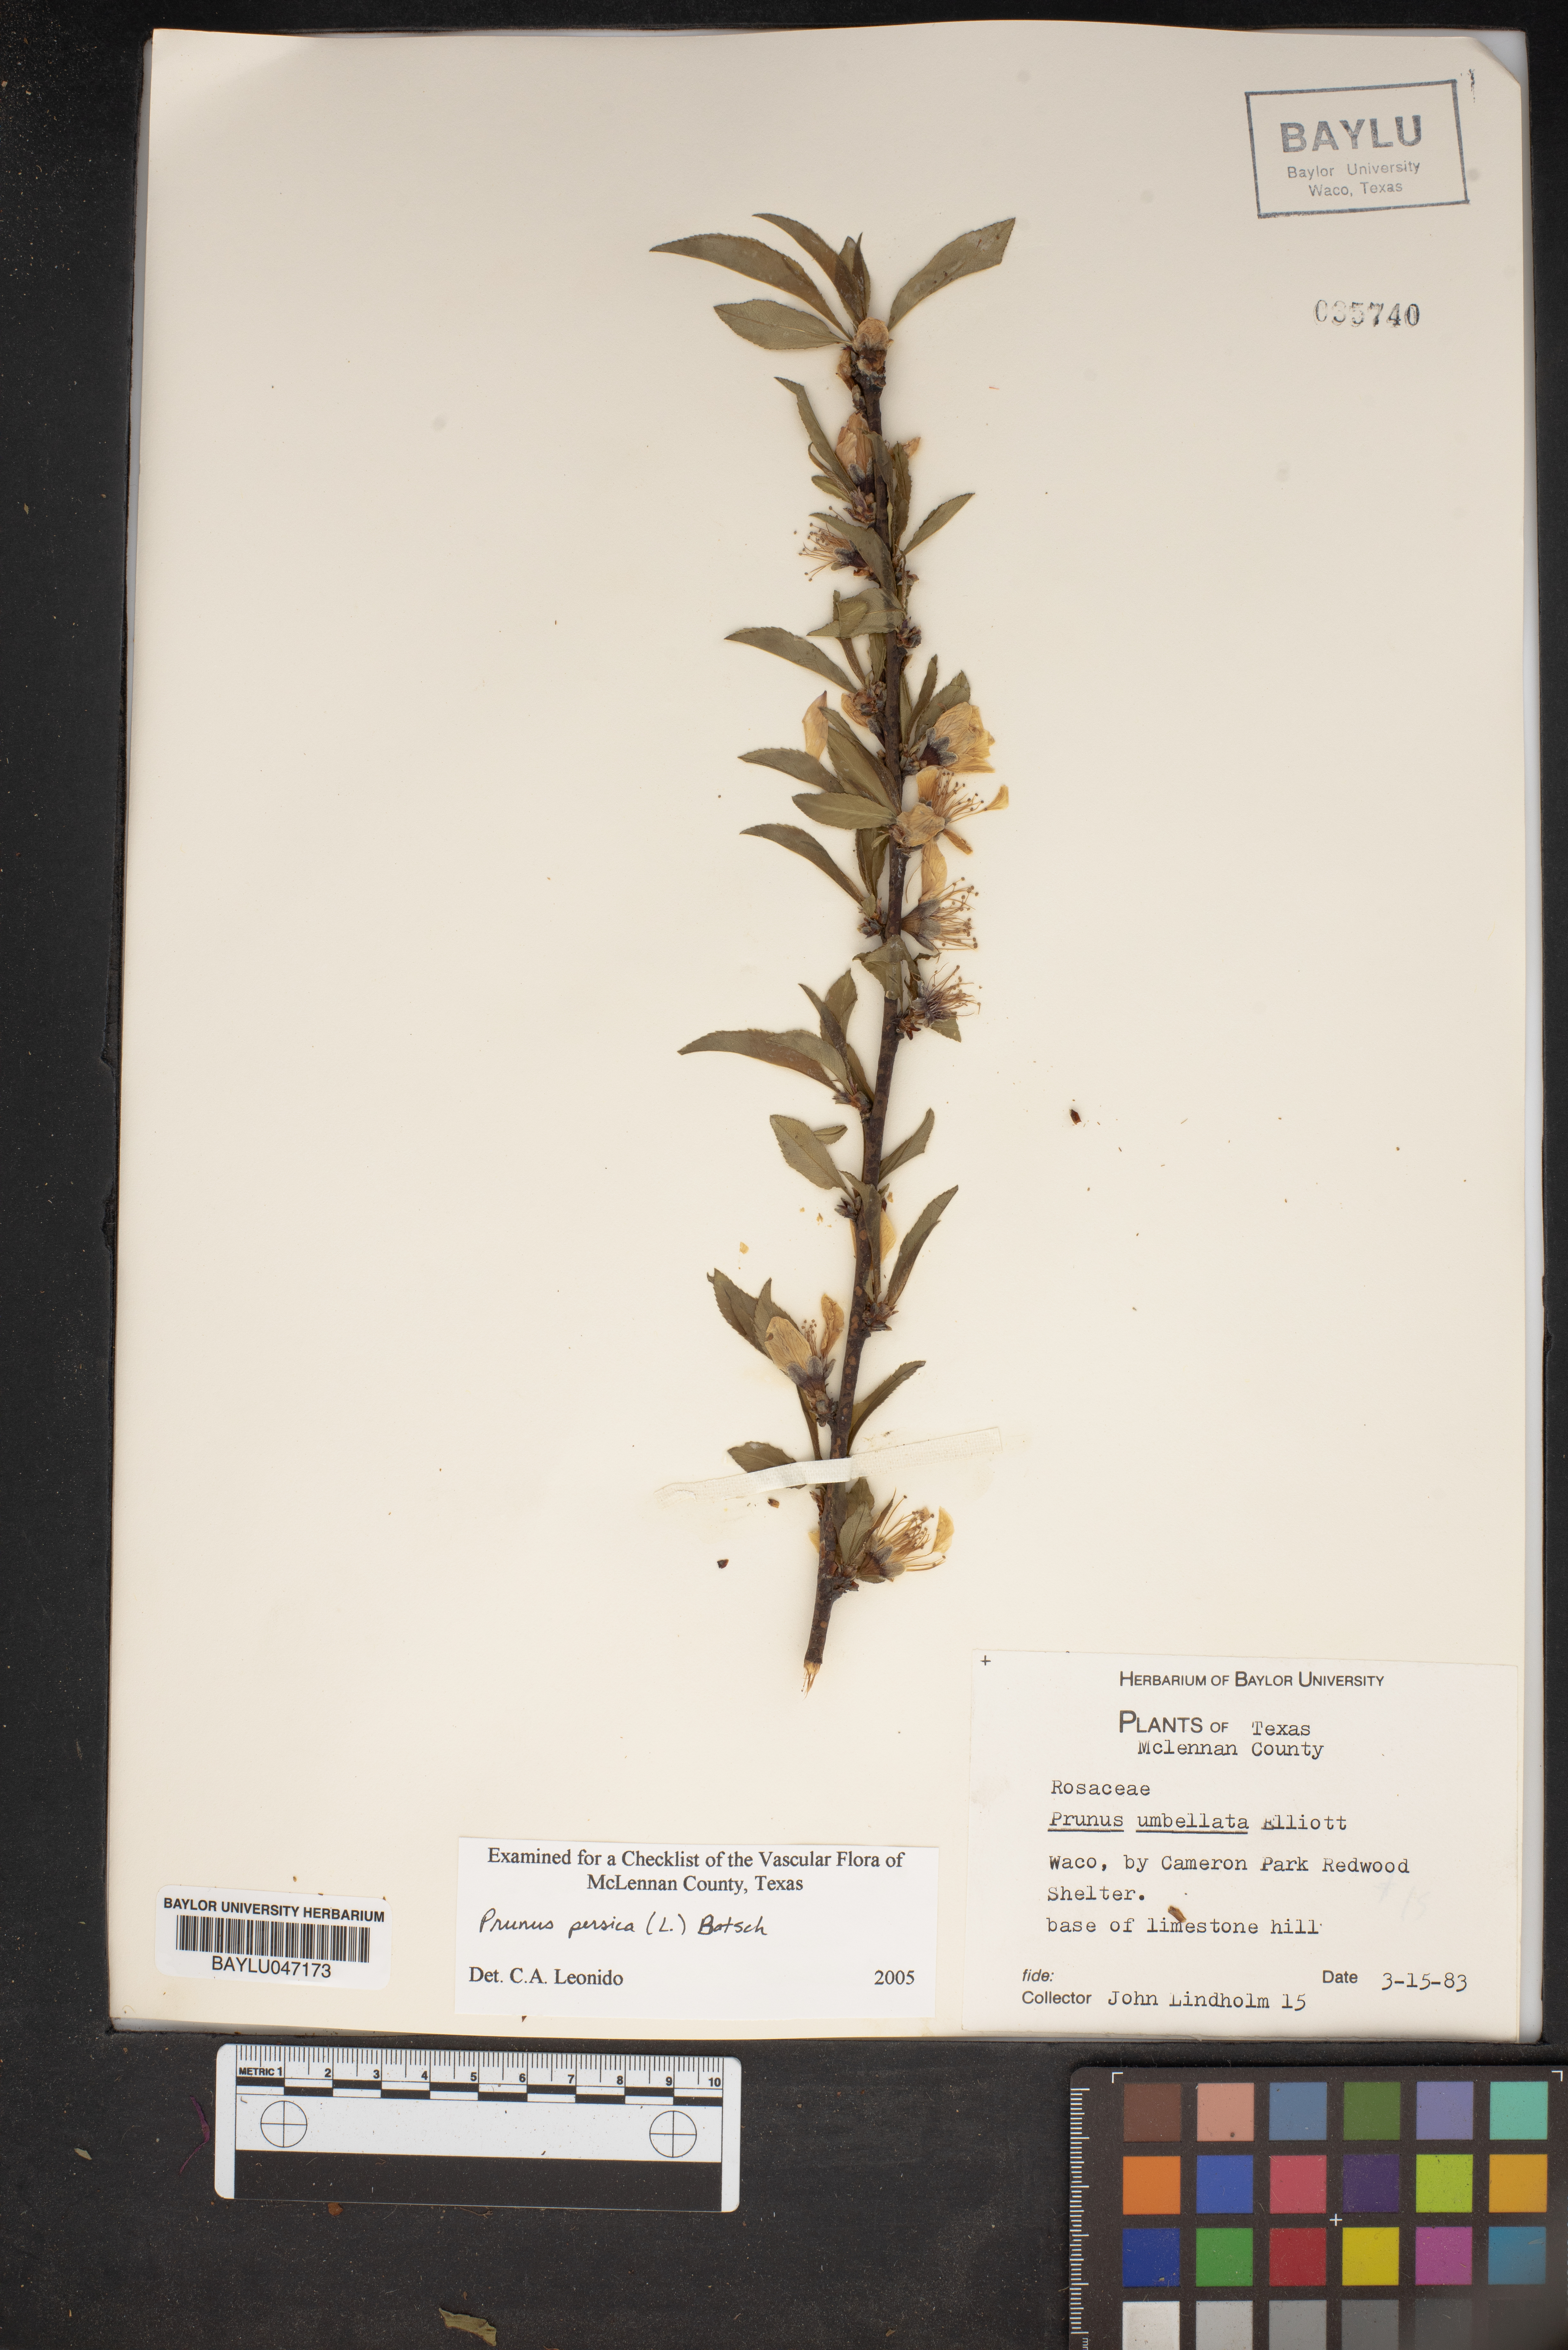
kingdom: Plantae
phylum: Tracheophyta
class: Magnoliopsida
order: Rosales
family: Rosaceae
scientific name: Rosaceae
